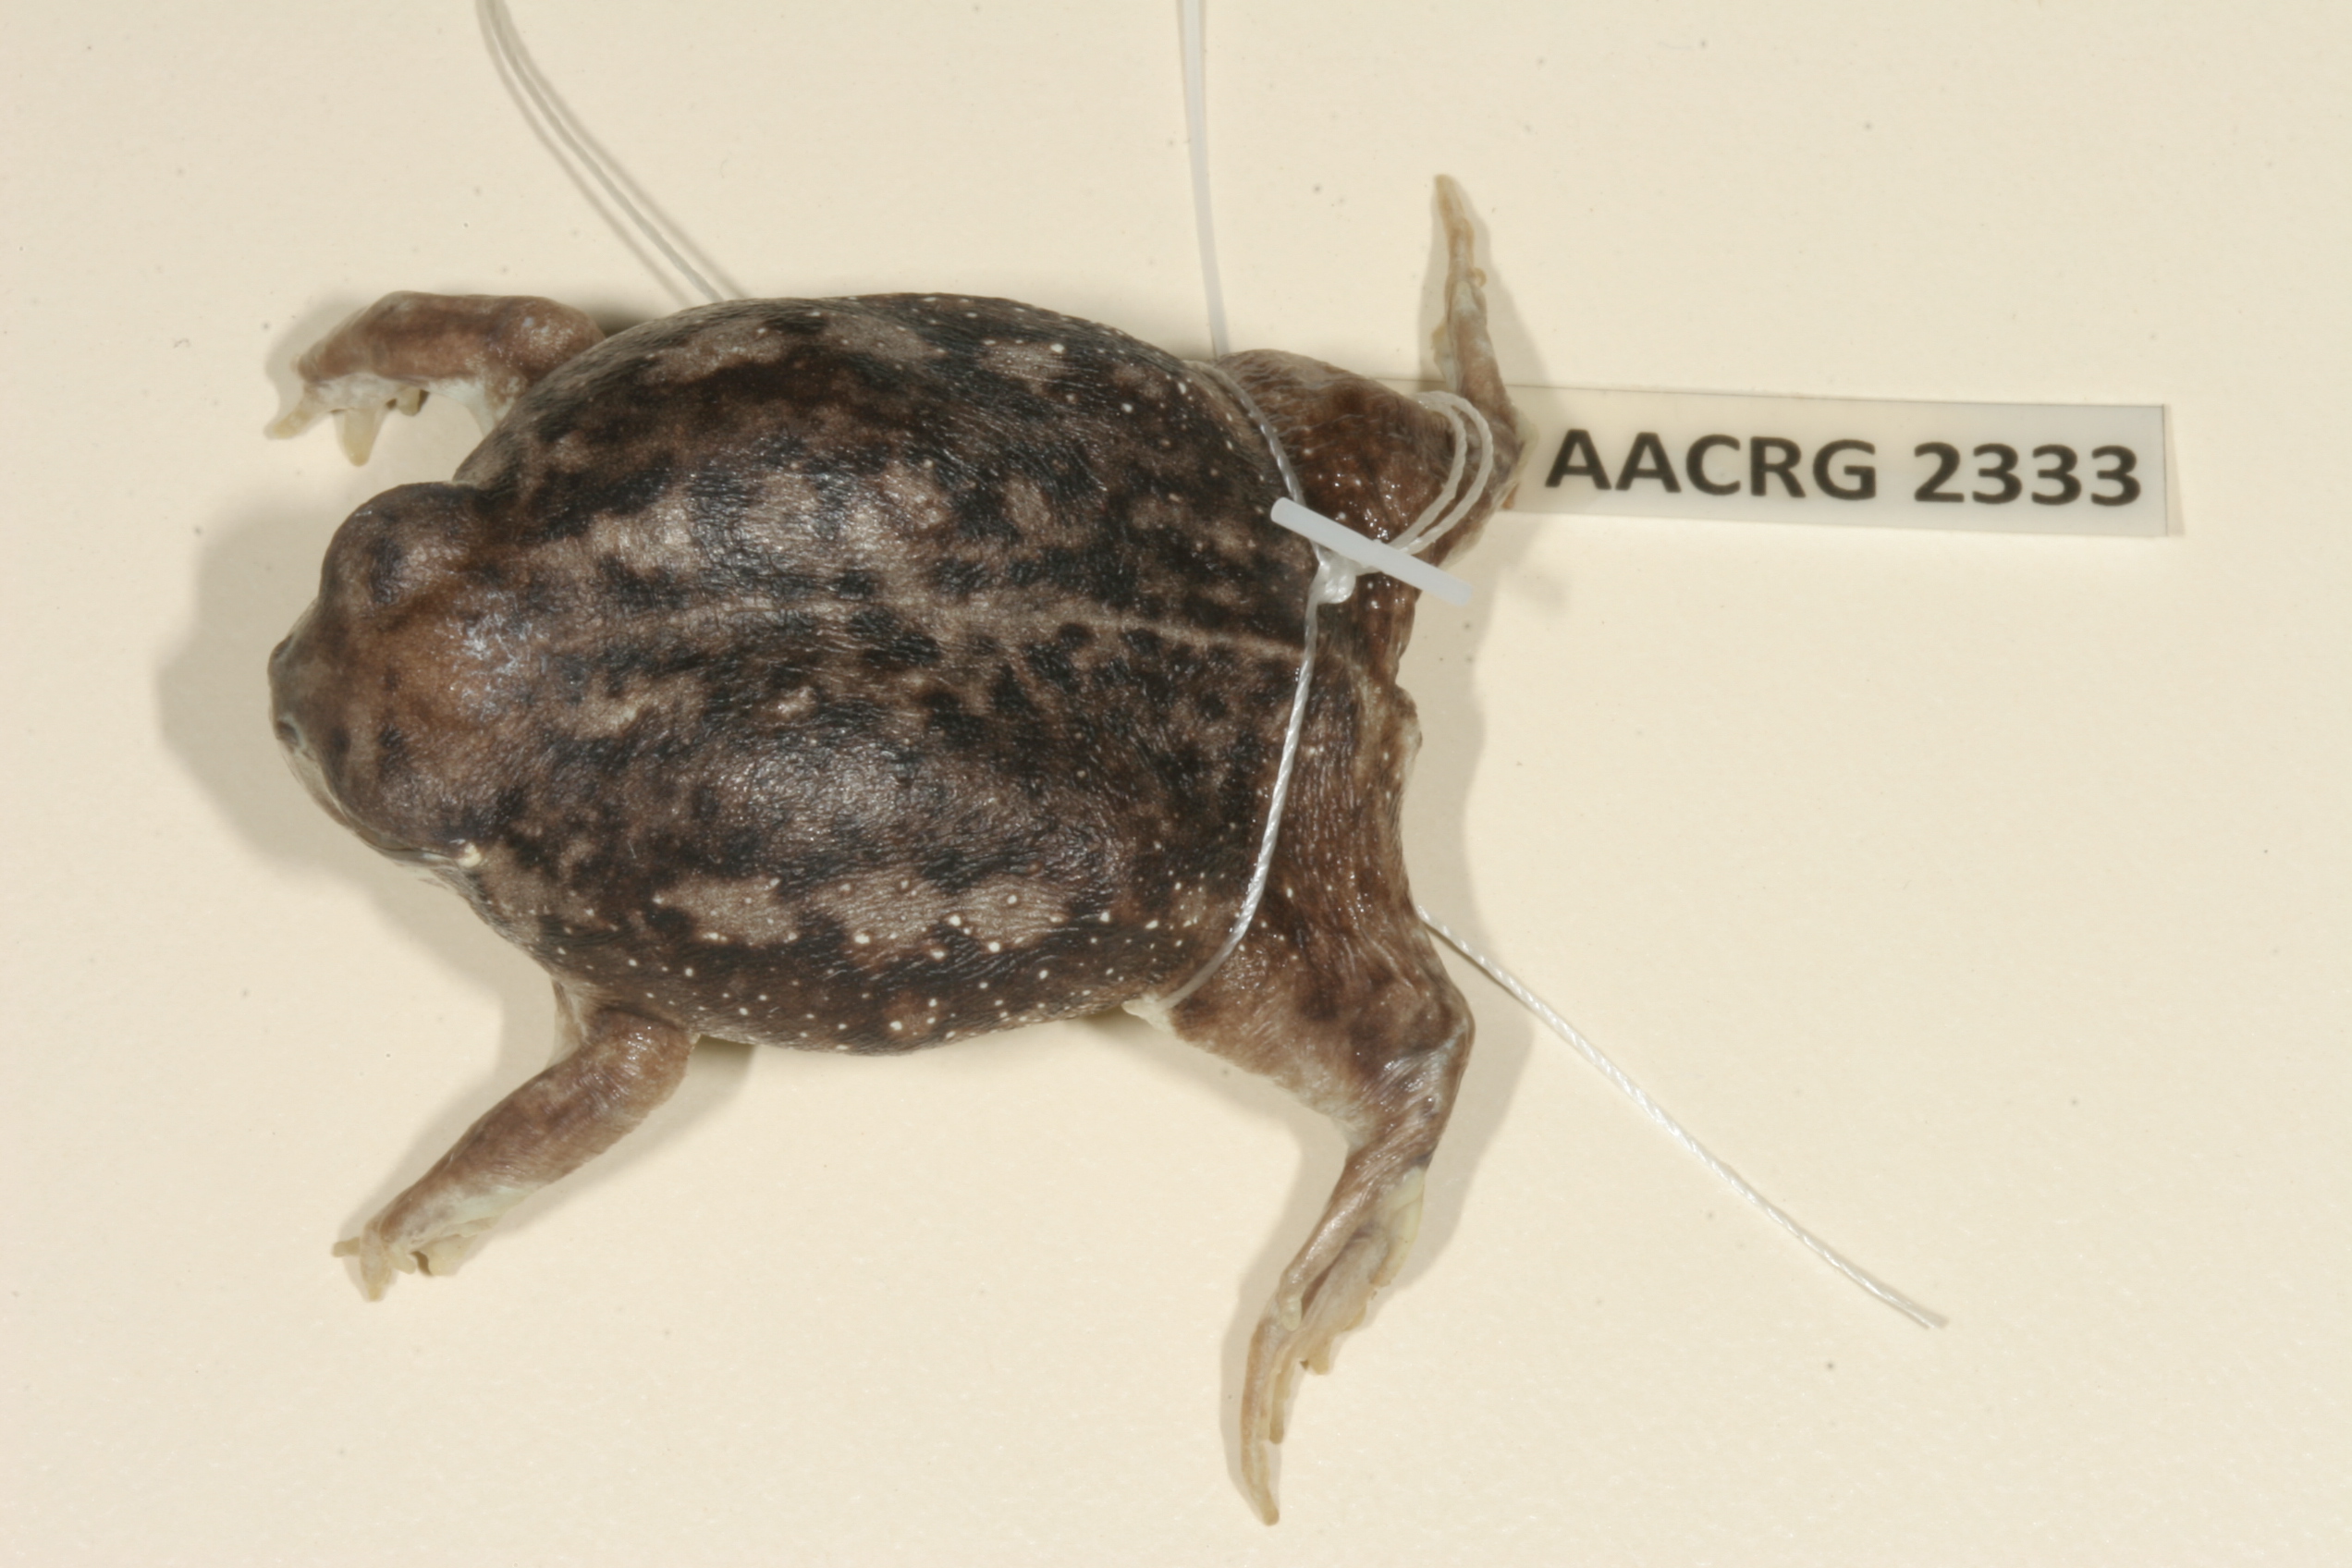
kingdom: Animalia
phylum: Chordata
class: Amphibia
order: Anura
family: Brevicipitidae
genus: Breviceps
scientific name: Breviceps adspersus
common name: Common rain frog
